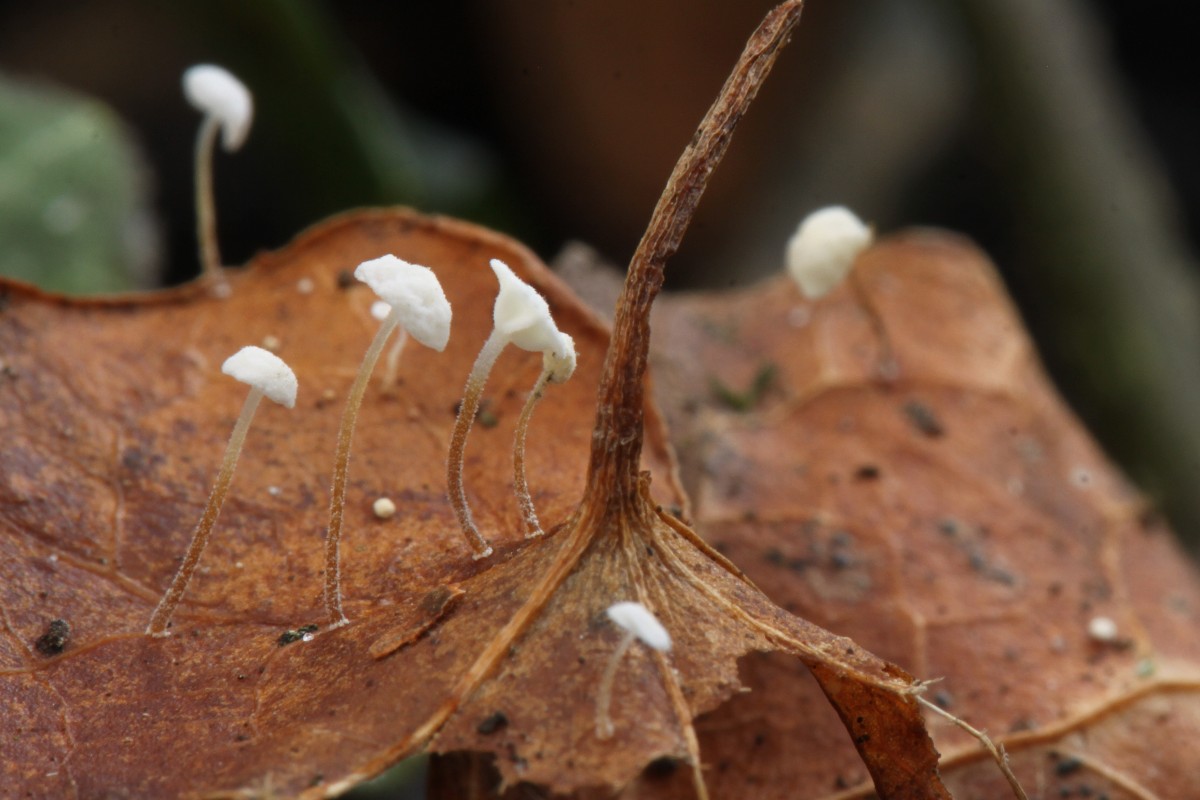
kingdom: Fungi
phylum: Basidiomycota
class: Agaricomycetes
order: Agaricales
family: Marasmiaceae
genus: Marasmius
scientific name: Marasmius epiphylloides
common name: vedbend-bruskhat
